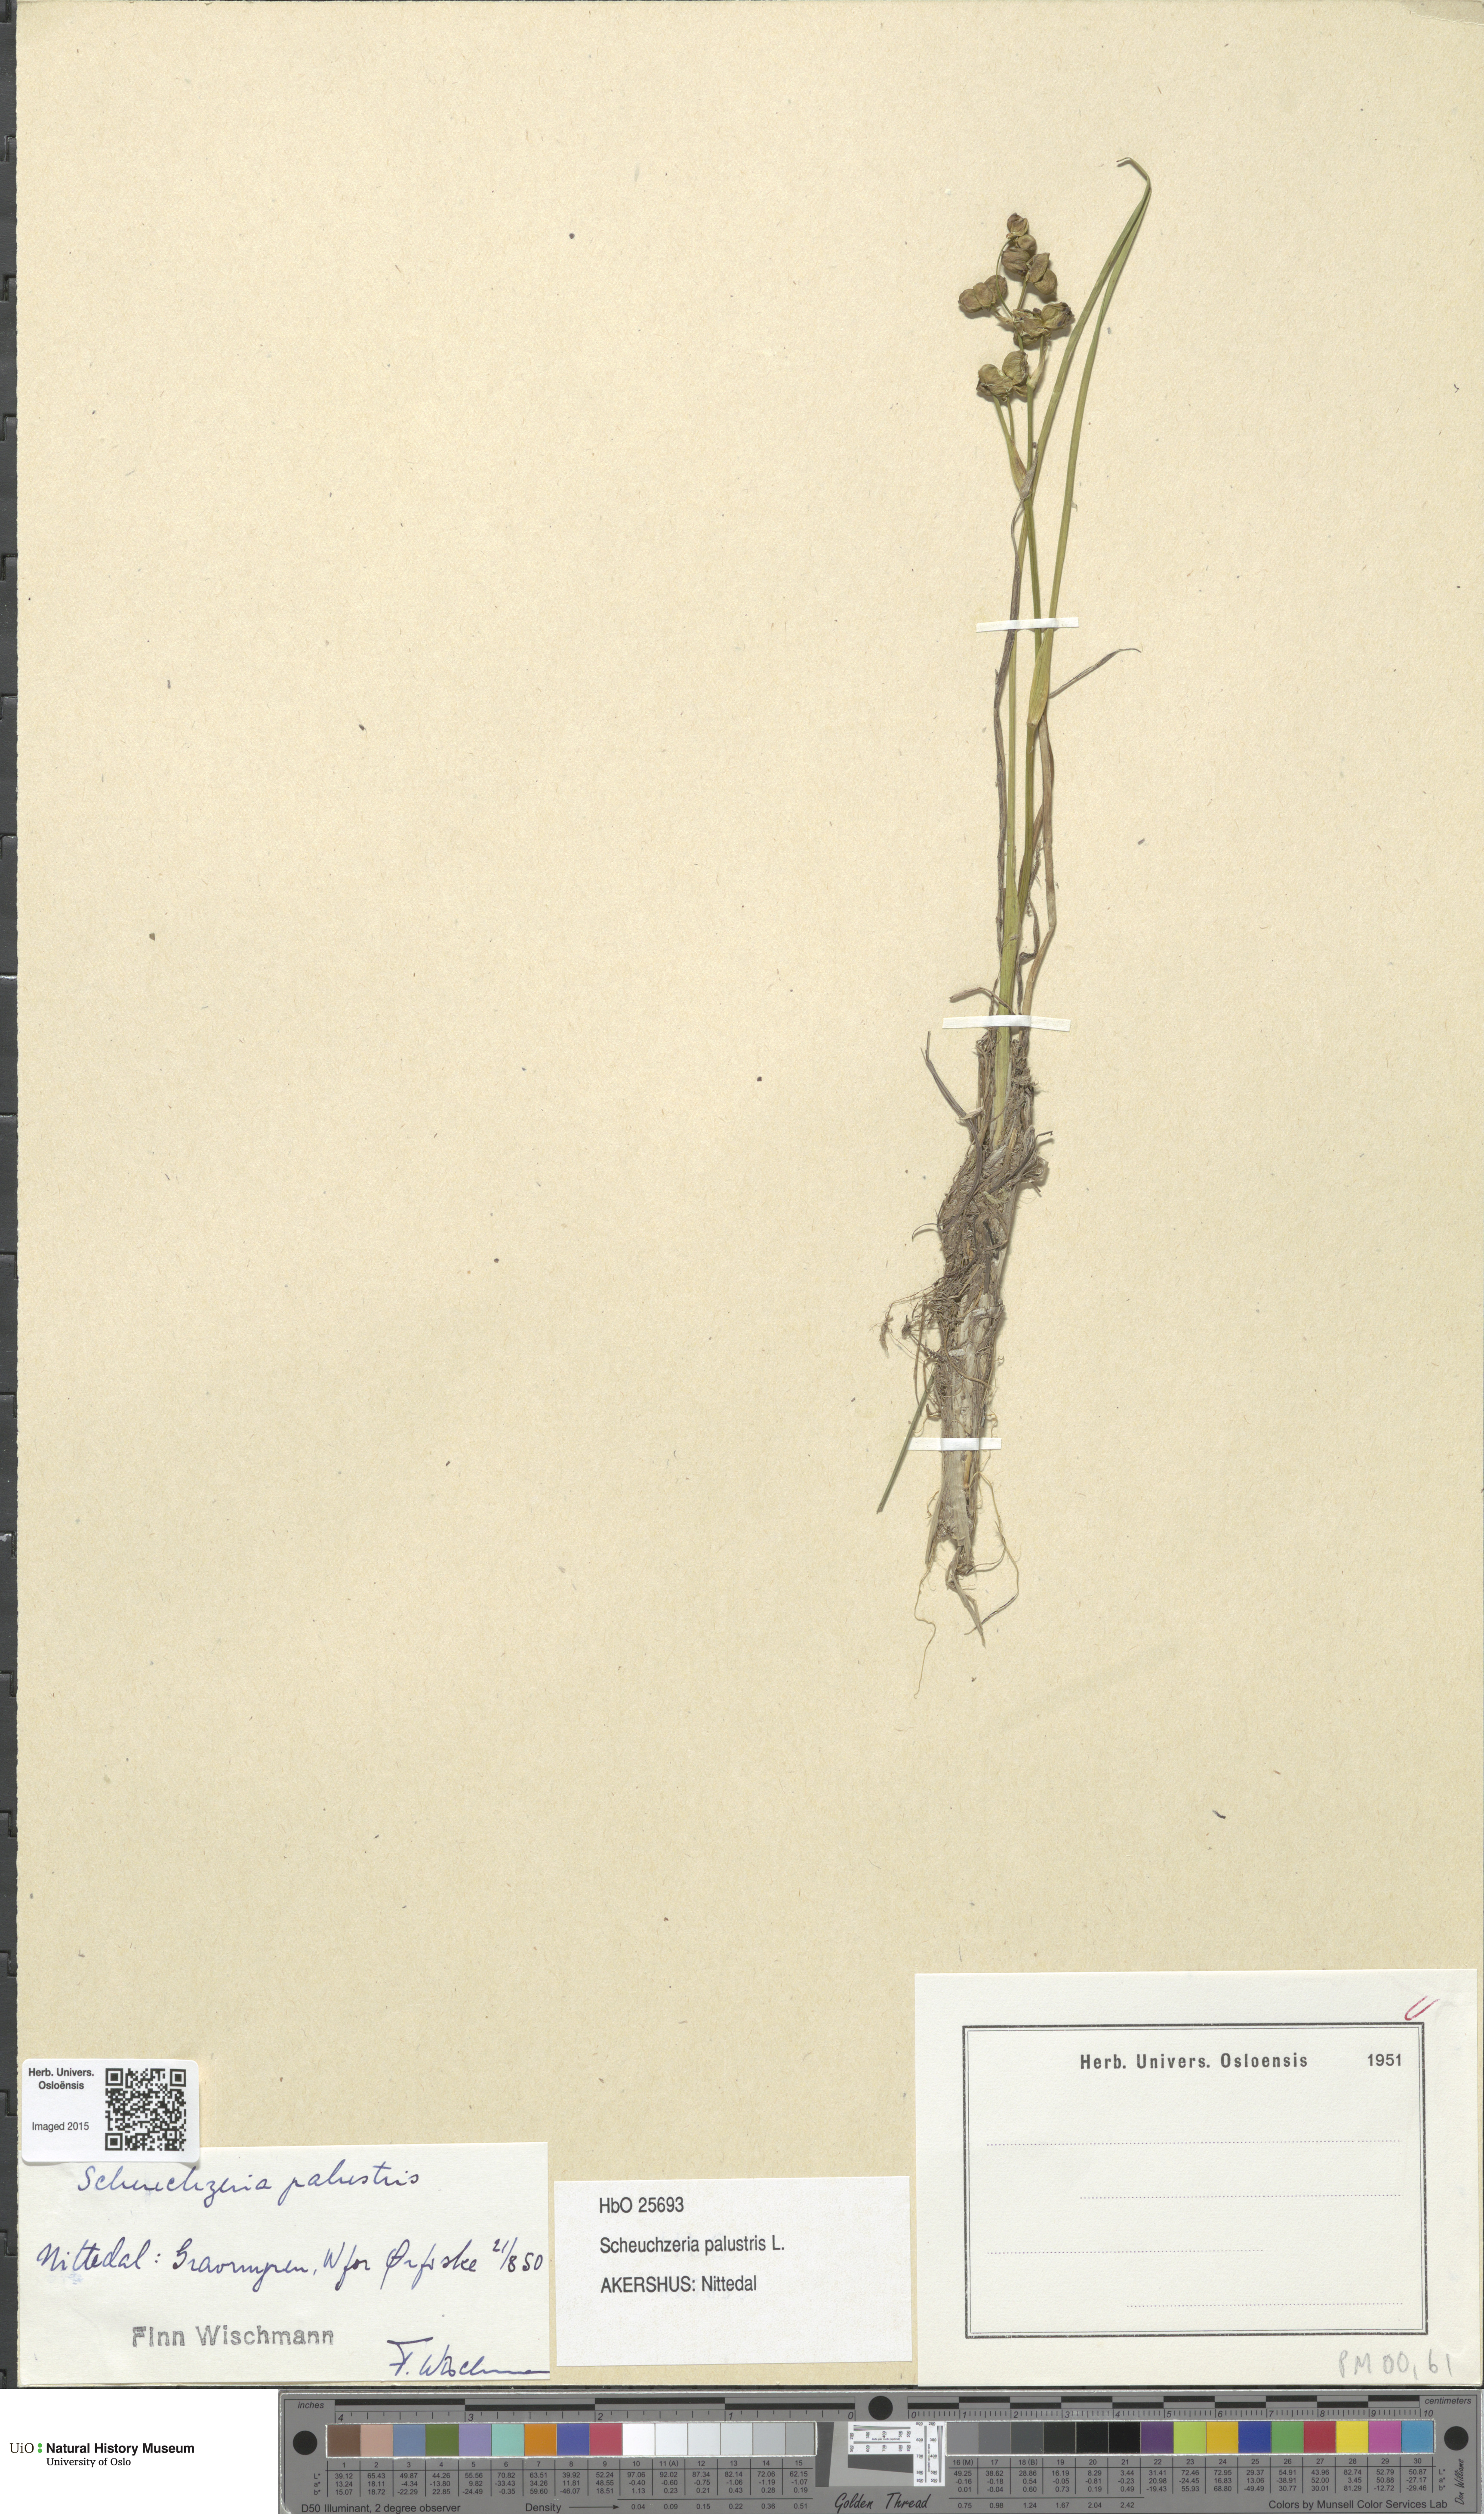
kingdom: Plantae
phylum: Tracheophyta
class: Liliopsida
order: Alismatales
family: Scheuchzeriaceae
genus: Scheuchzeria
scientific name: Scheuchzeria palustris
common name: Rannoch-rush
